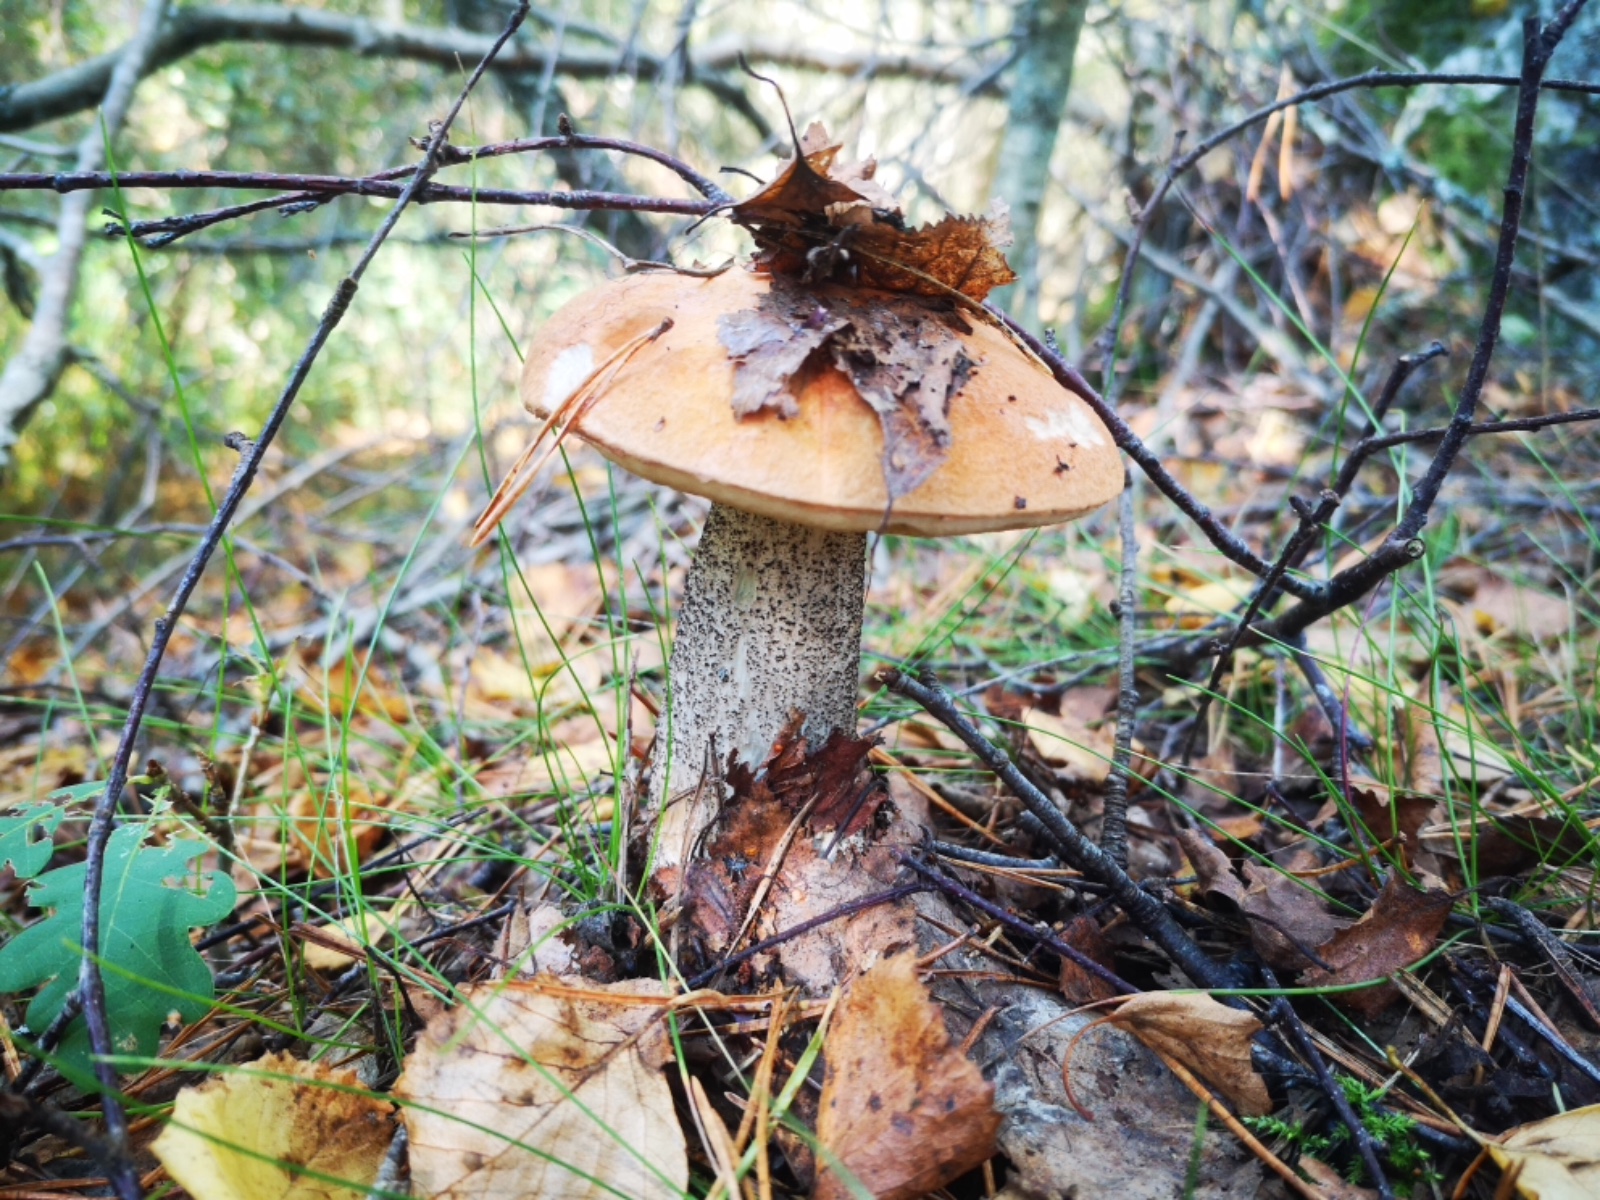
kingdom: Fungi
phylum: Basidiomycota
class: Agaricomycetes
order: Boletales
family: Boletaceae
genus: Leccinum
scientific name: Leccinum versipelle
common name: orange skælrørhat
